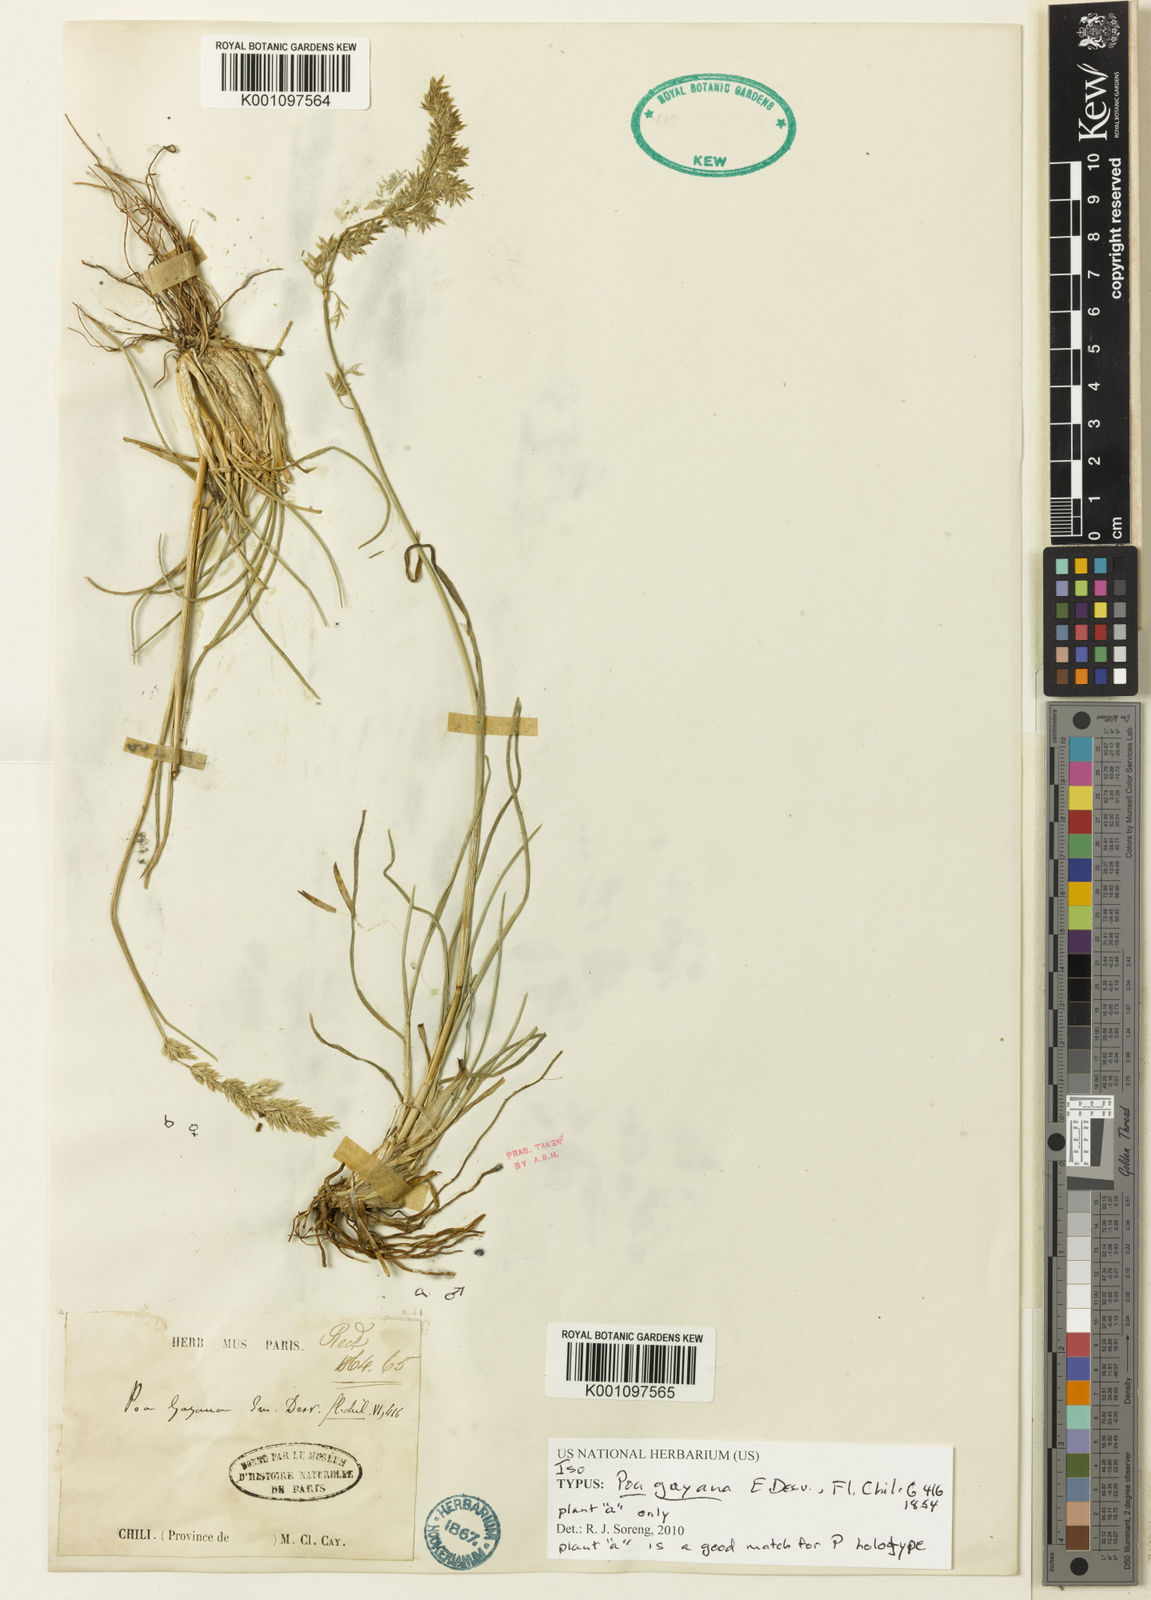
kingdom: Plantae
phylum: Tracheophyta
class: Liliopsida
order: Poales
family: Poaceae
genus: Poa
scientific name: Poa
